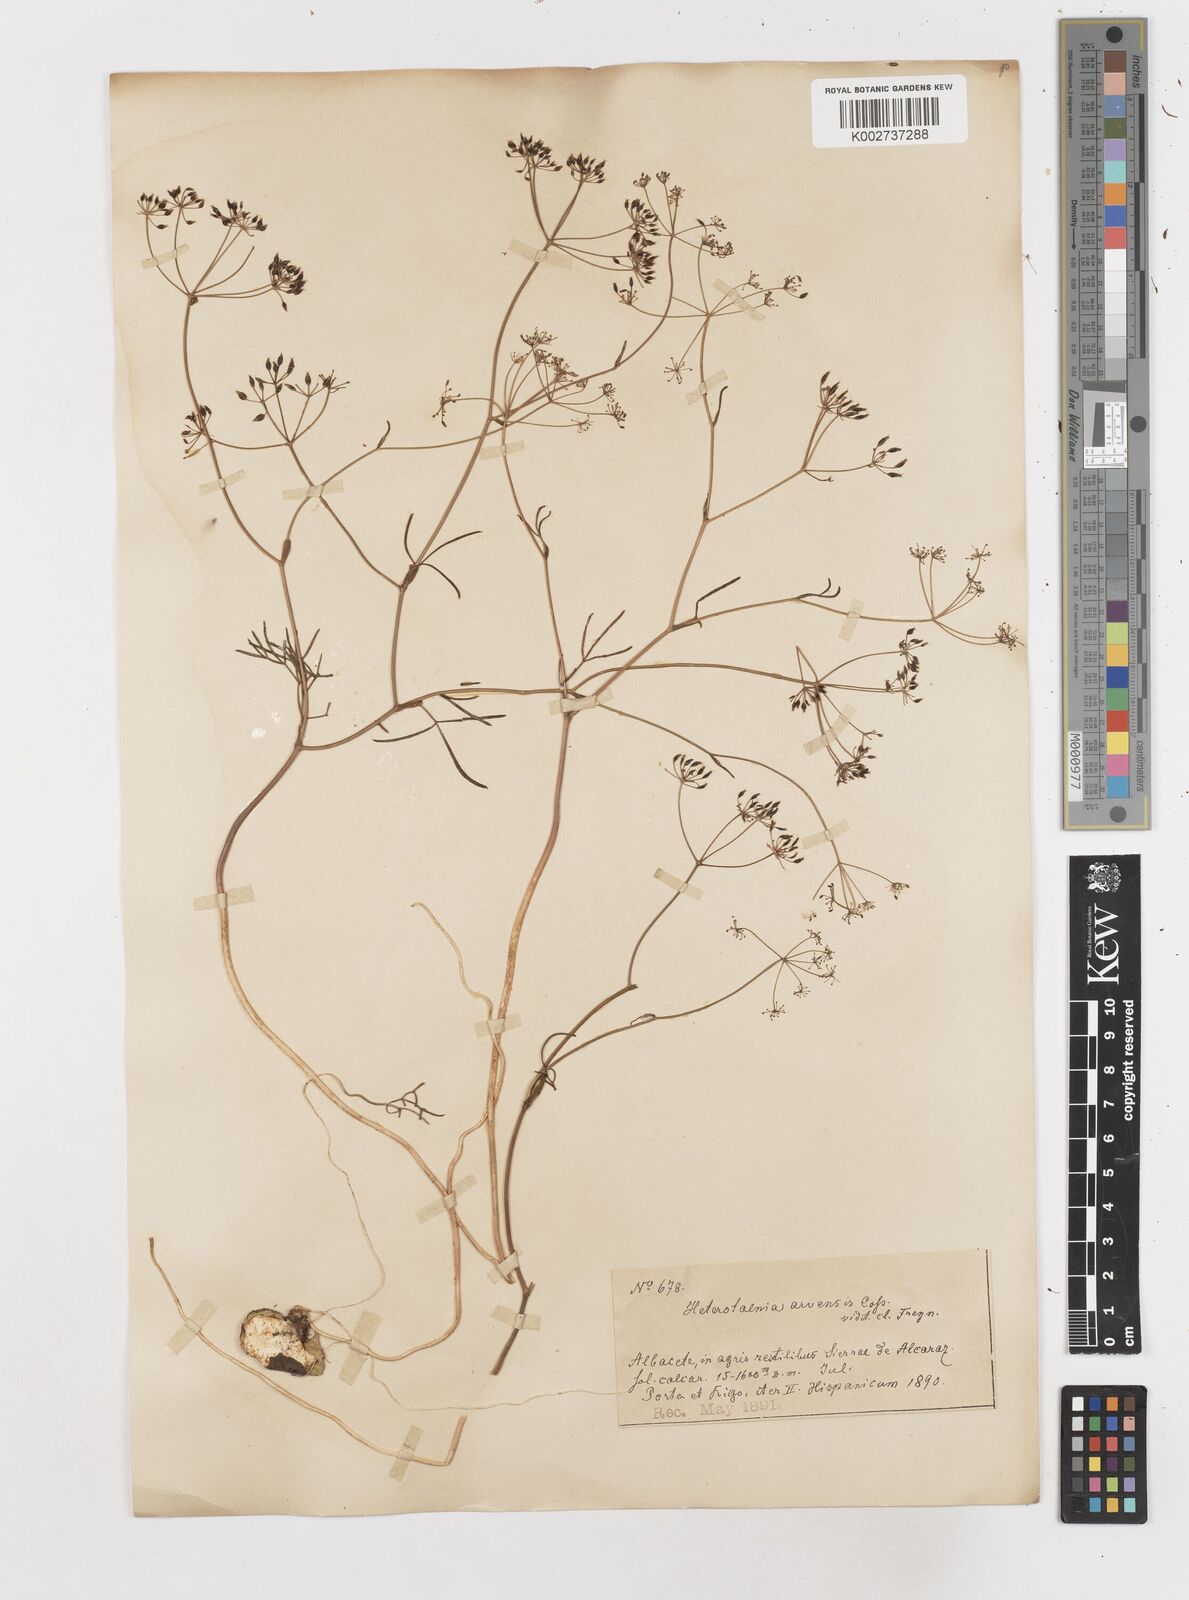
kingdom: Plantae
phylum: Tracheophyta
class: Magnoliopsida
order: Apiales
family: Apiaceae
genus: Conopodium
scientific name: Conopodium arvense
